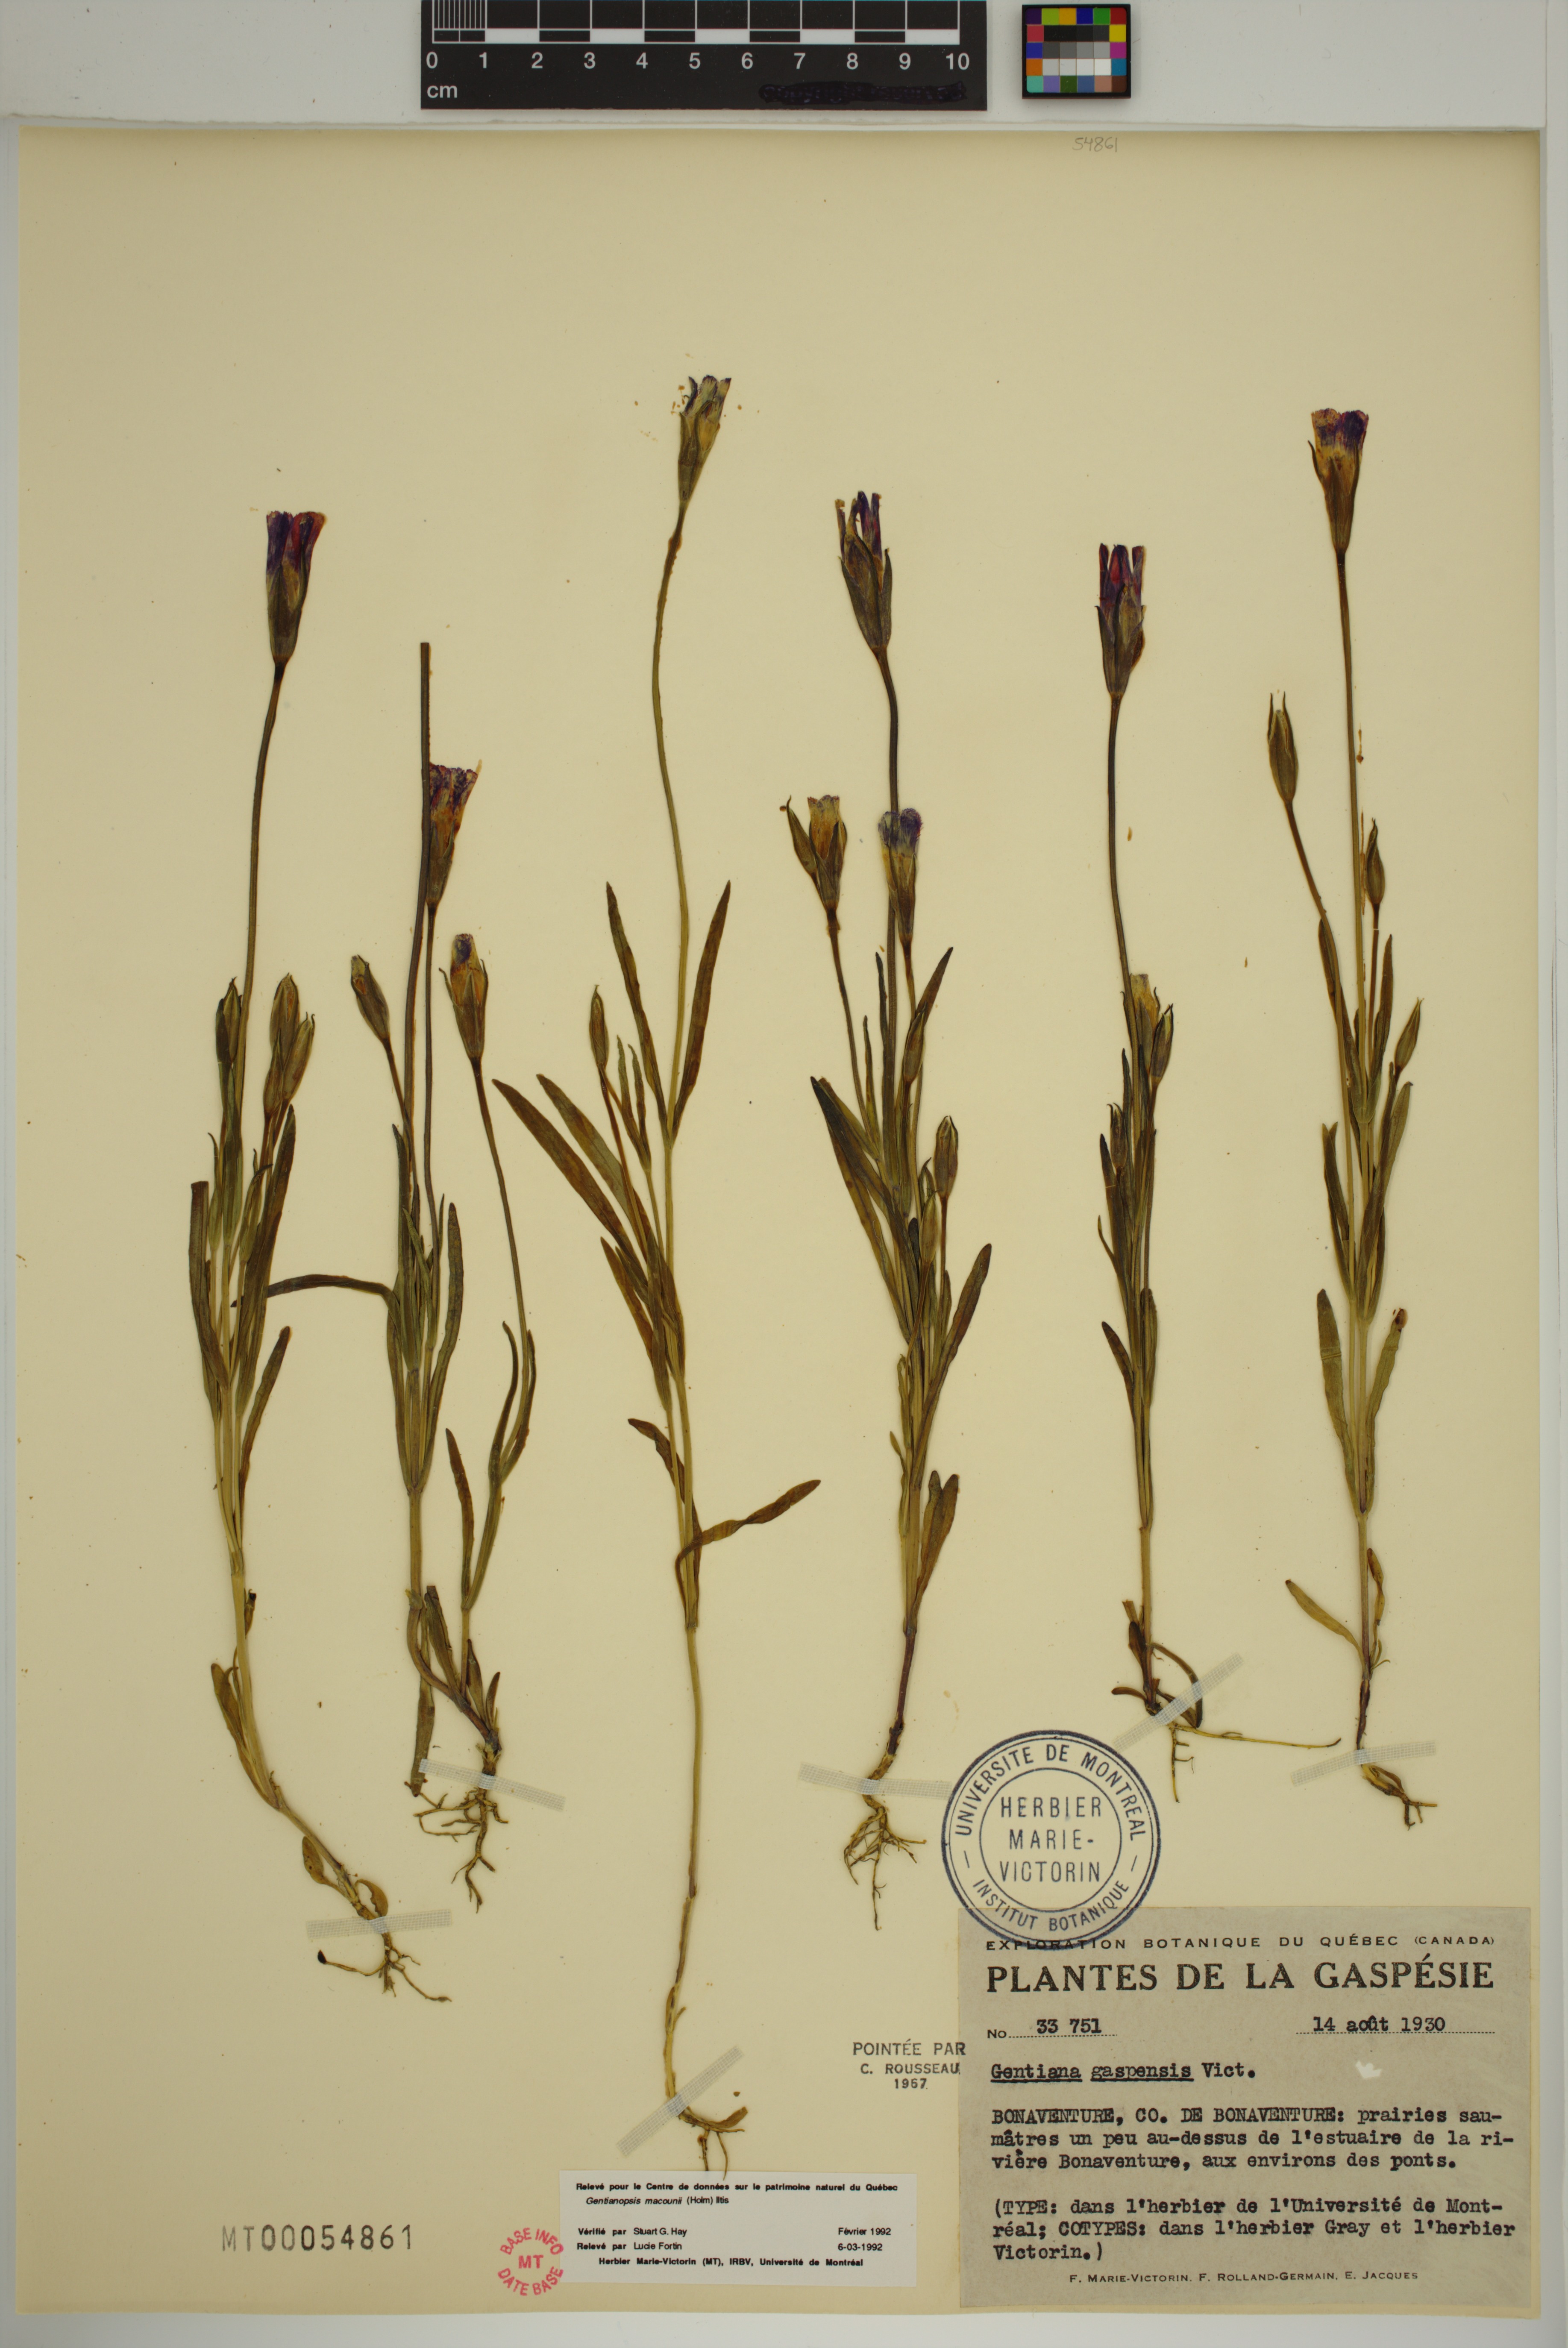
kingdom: Plantae
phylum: Tracheophyta
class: Magnoliopsida
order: Gentianales
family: Gentianaceae
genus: Gentianopsis
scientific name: Gentianopsis macounii
